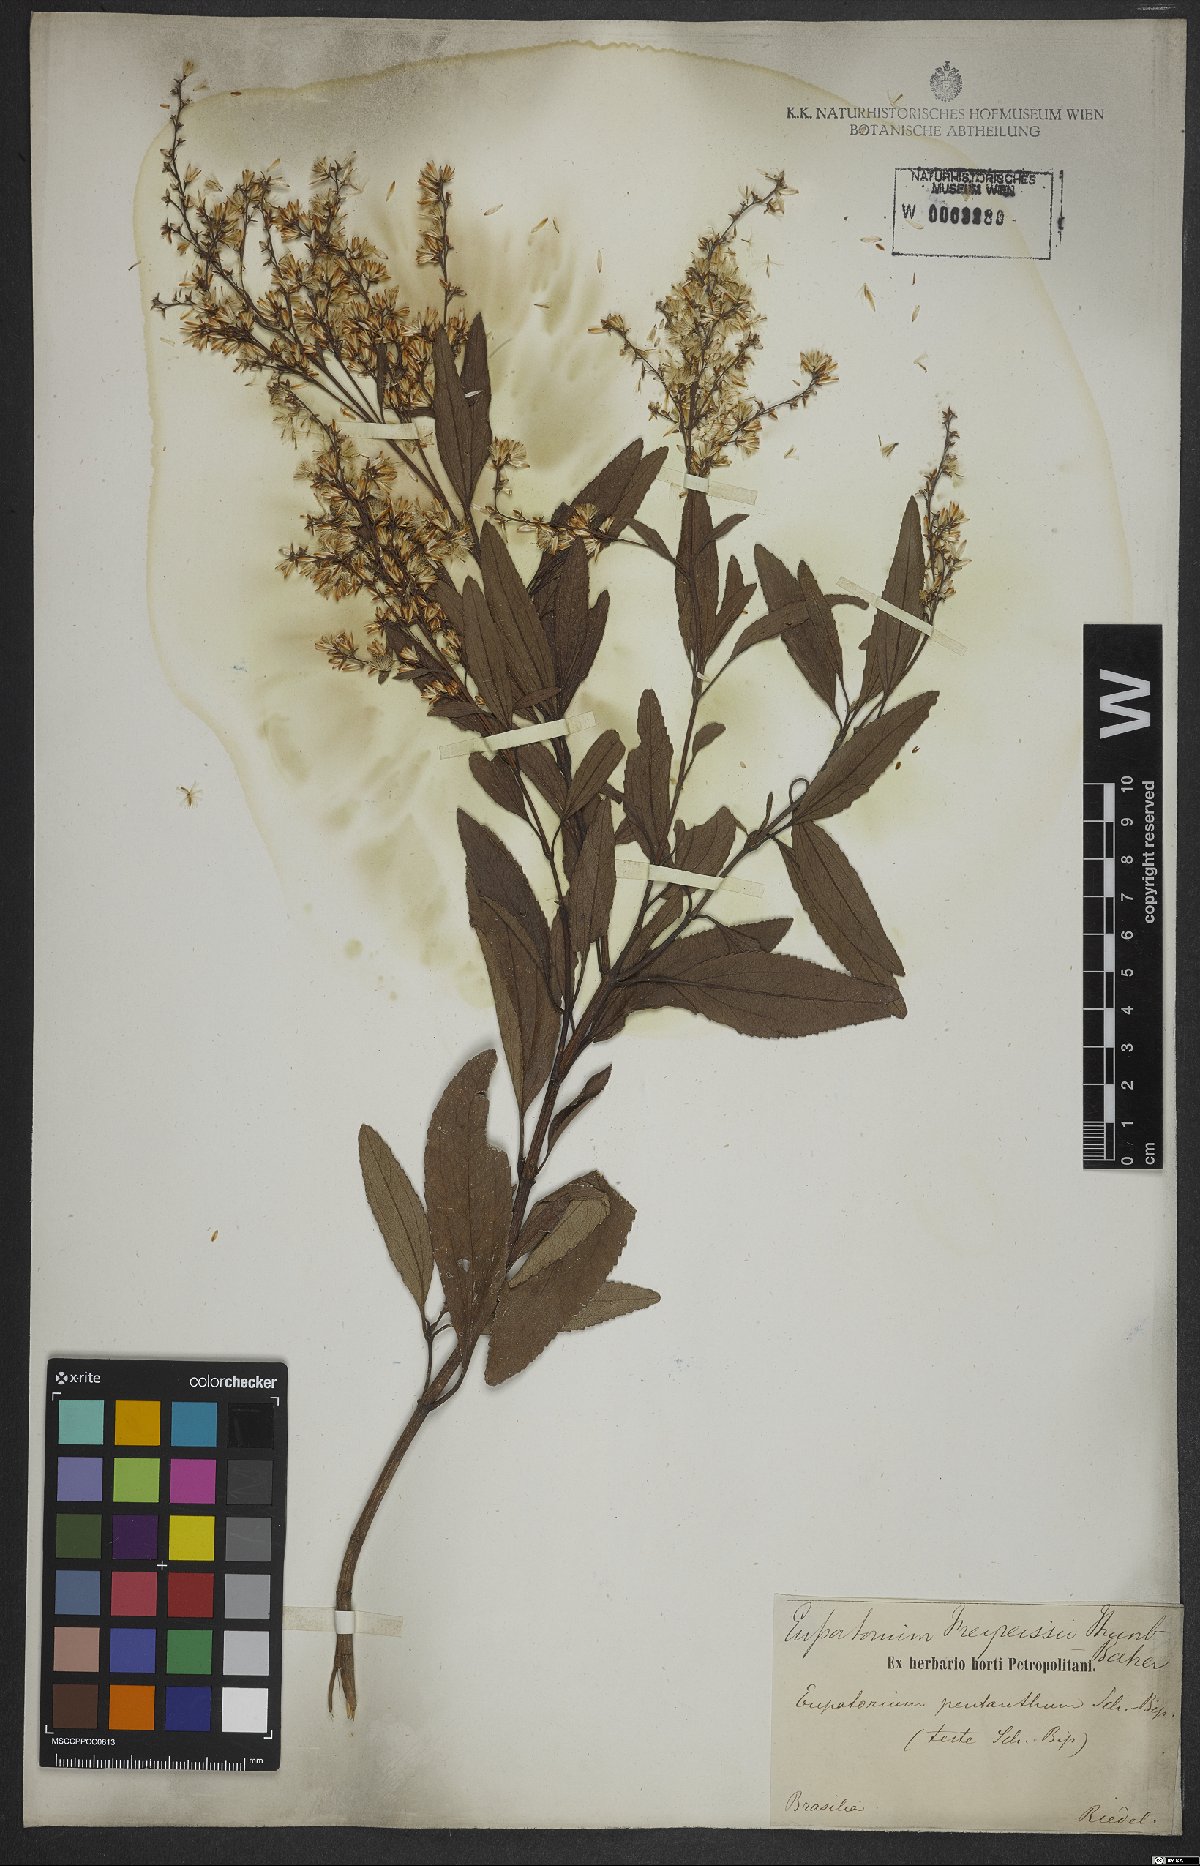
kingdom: Plantae
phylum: Tracheophyta
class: Magnoliopsida
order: Asterales
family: Asteraceae
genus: Ophryosporus
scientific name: Ophryosporus freyreysi
